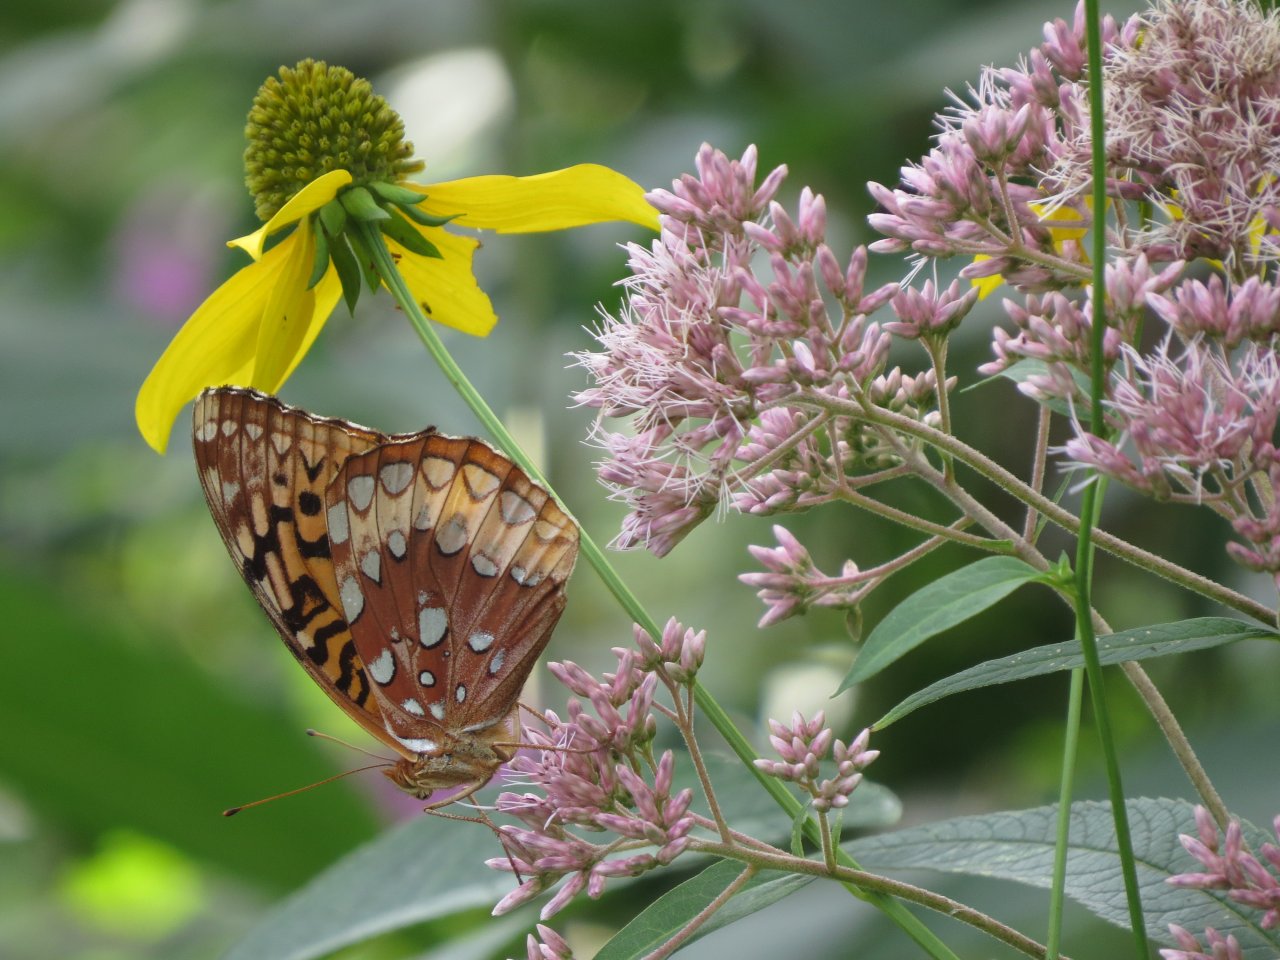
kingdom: Animalia
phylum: Arthropoda
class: Insecta
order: Lepidoptera
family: Nymphalidae
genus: Speyeria
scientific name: Speyeria cybele
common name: Great Spangled Fritillary
